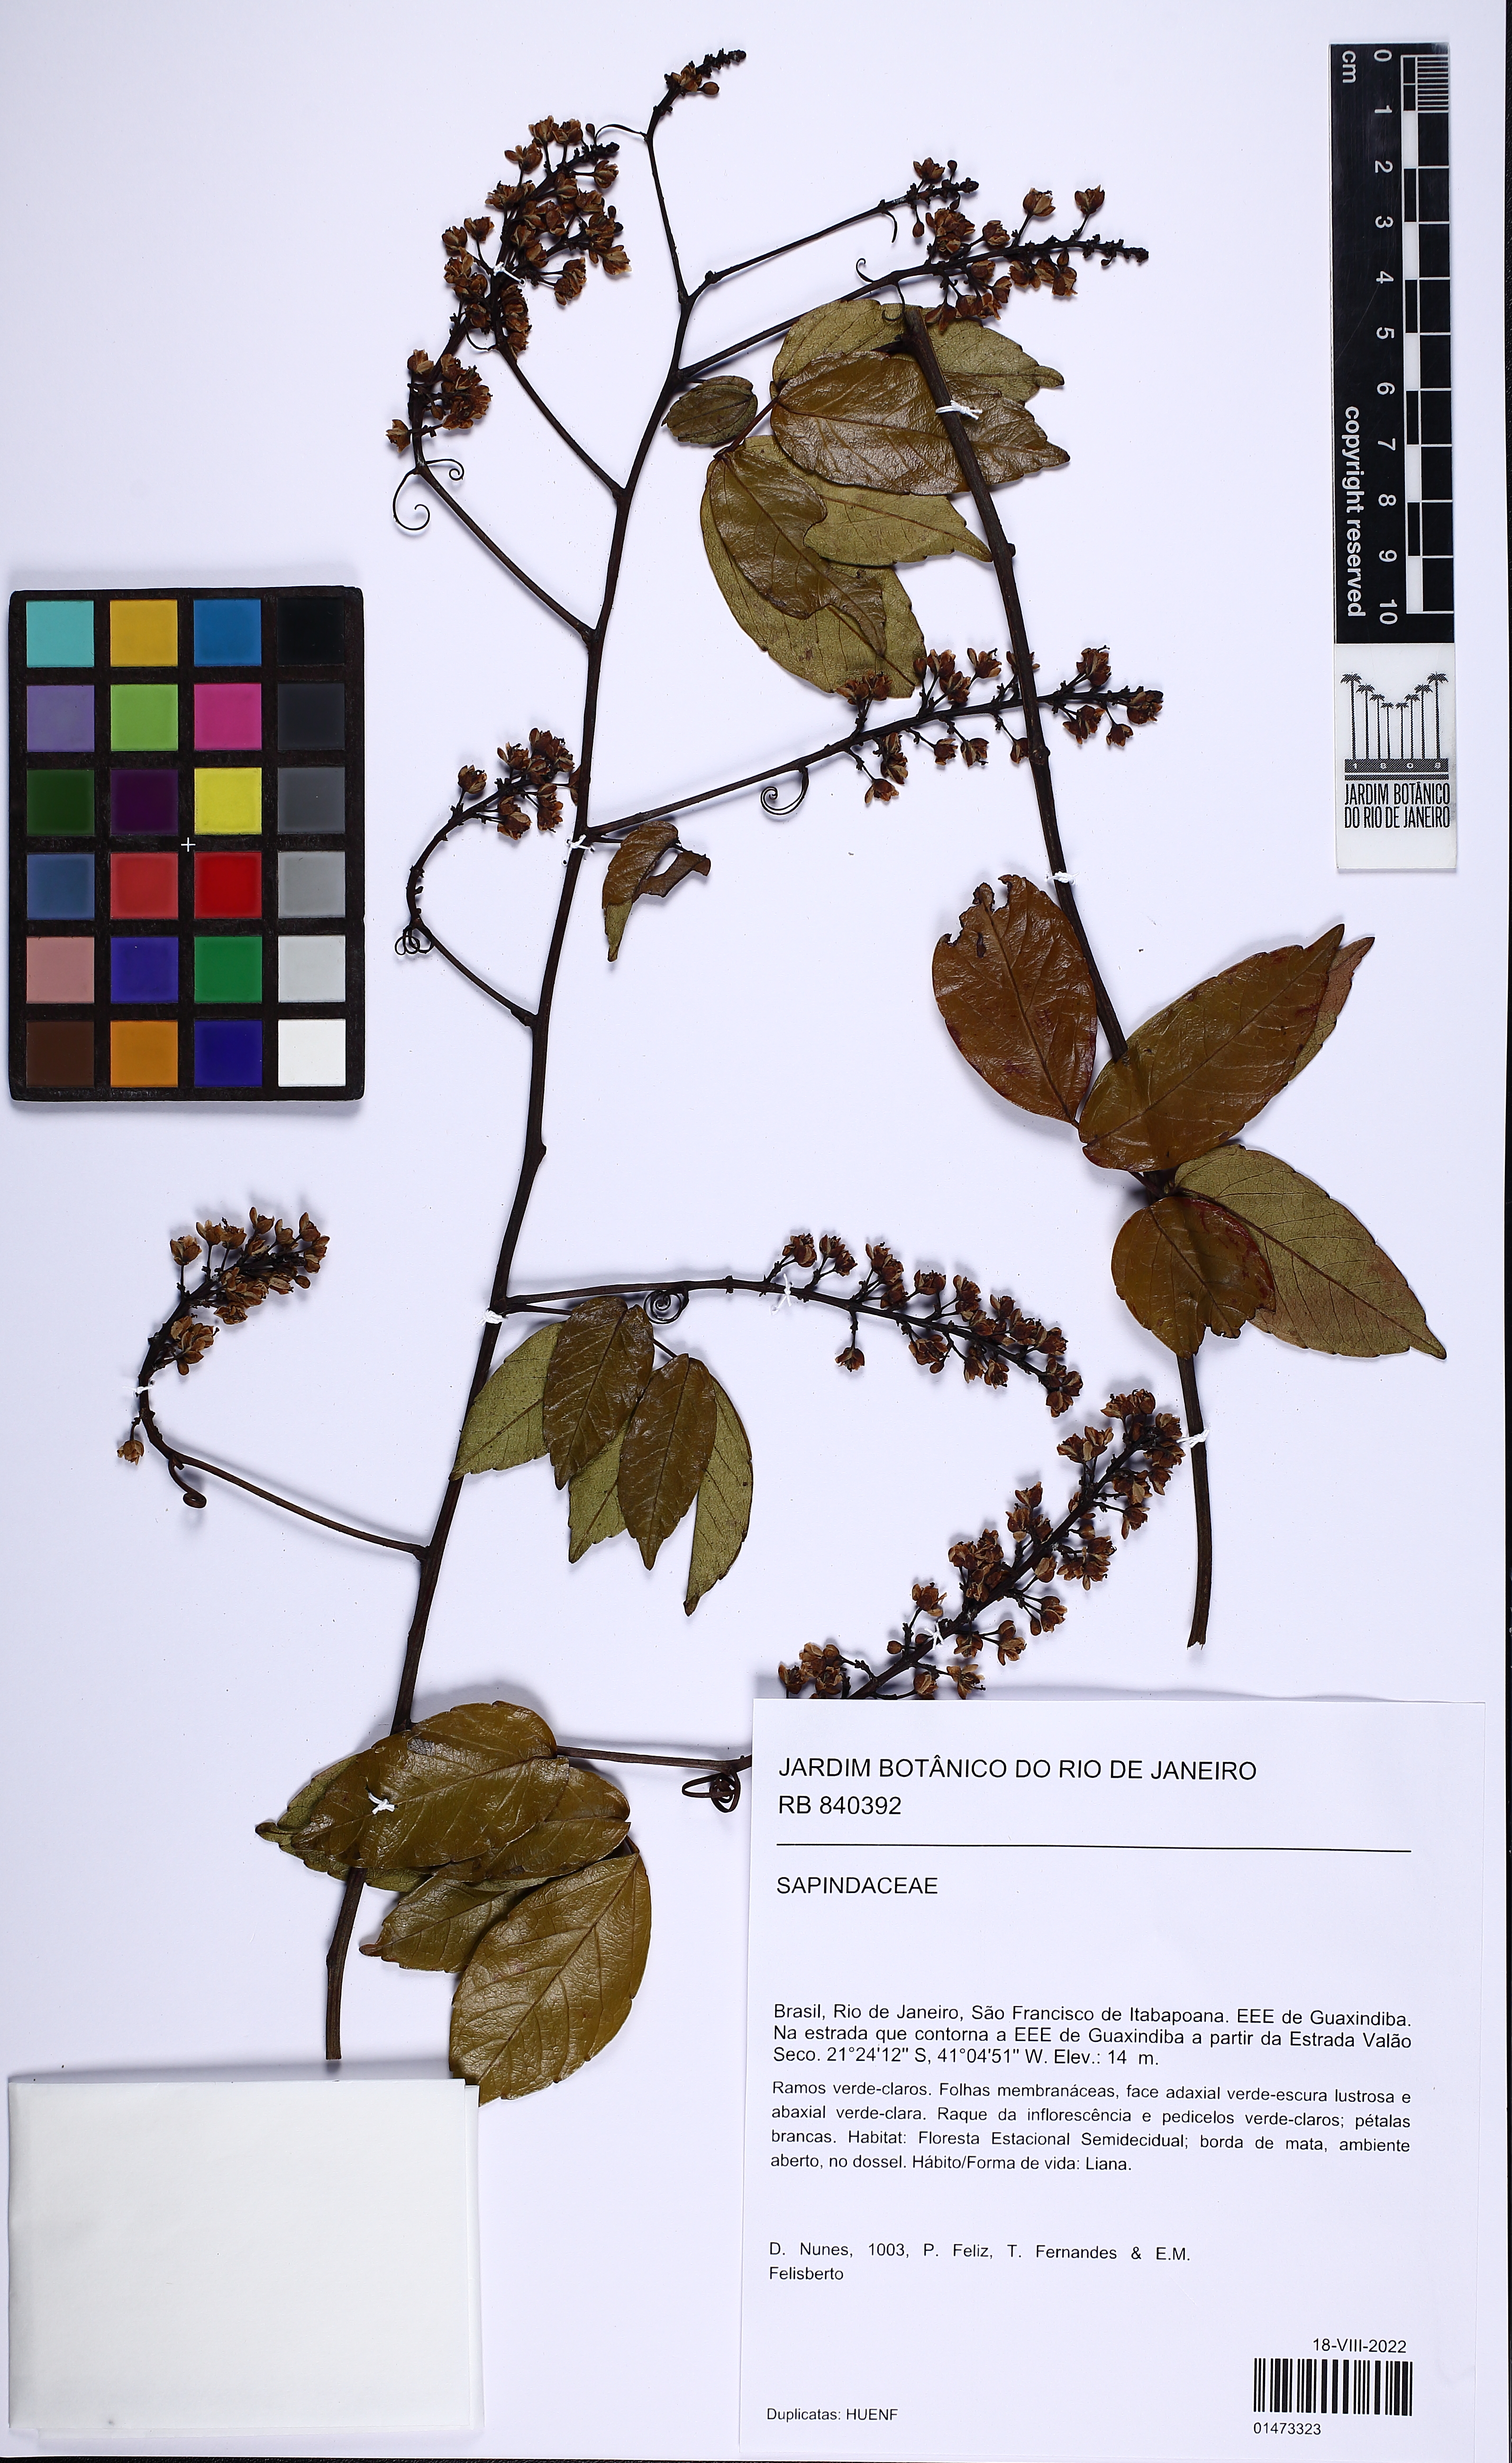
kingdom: Plantae
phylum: Tracheophyta
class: Magnoliopsida
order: Sapindales
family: Sapindaceae
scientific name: Sapindaceae
